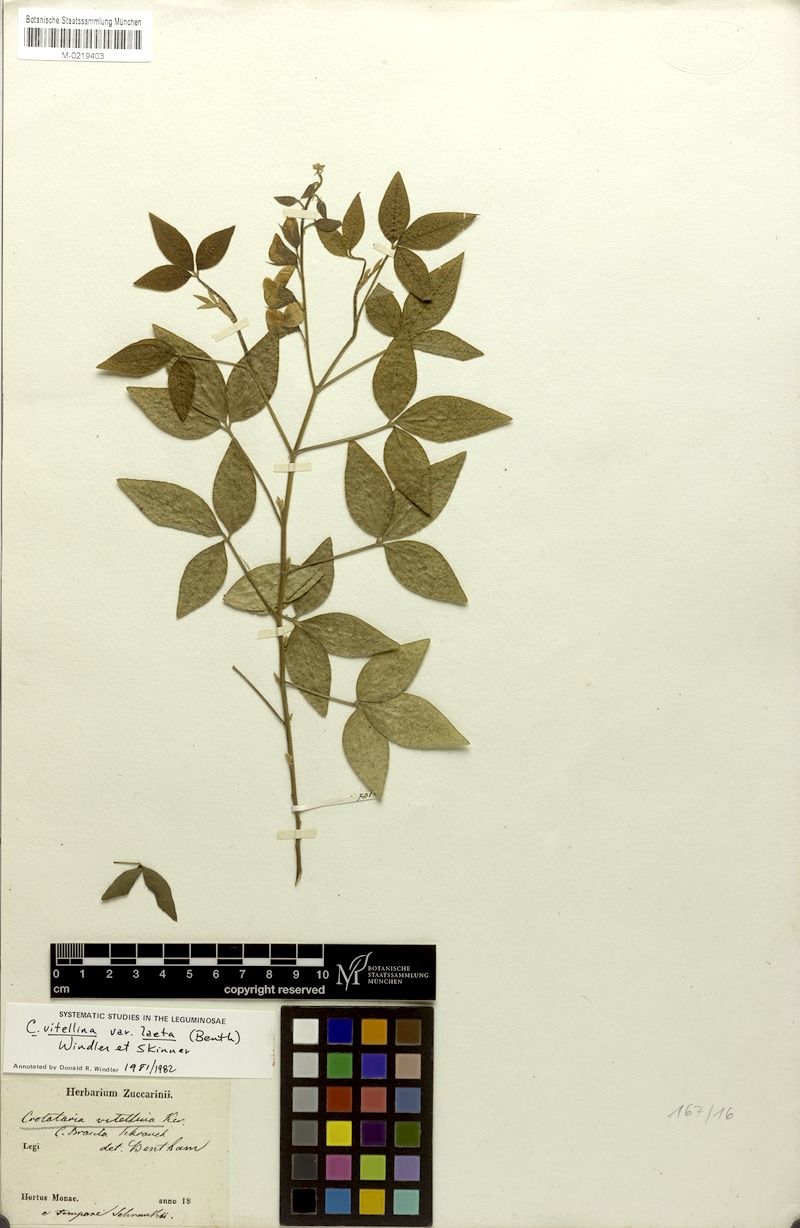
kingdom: Plantae
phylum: Tracheophyta
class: Magnoliopsida
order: Fabales
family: Fabaceae
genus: Crotalaria
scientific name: Crotalaria laeta
